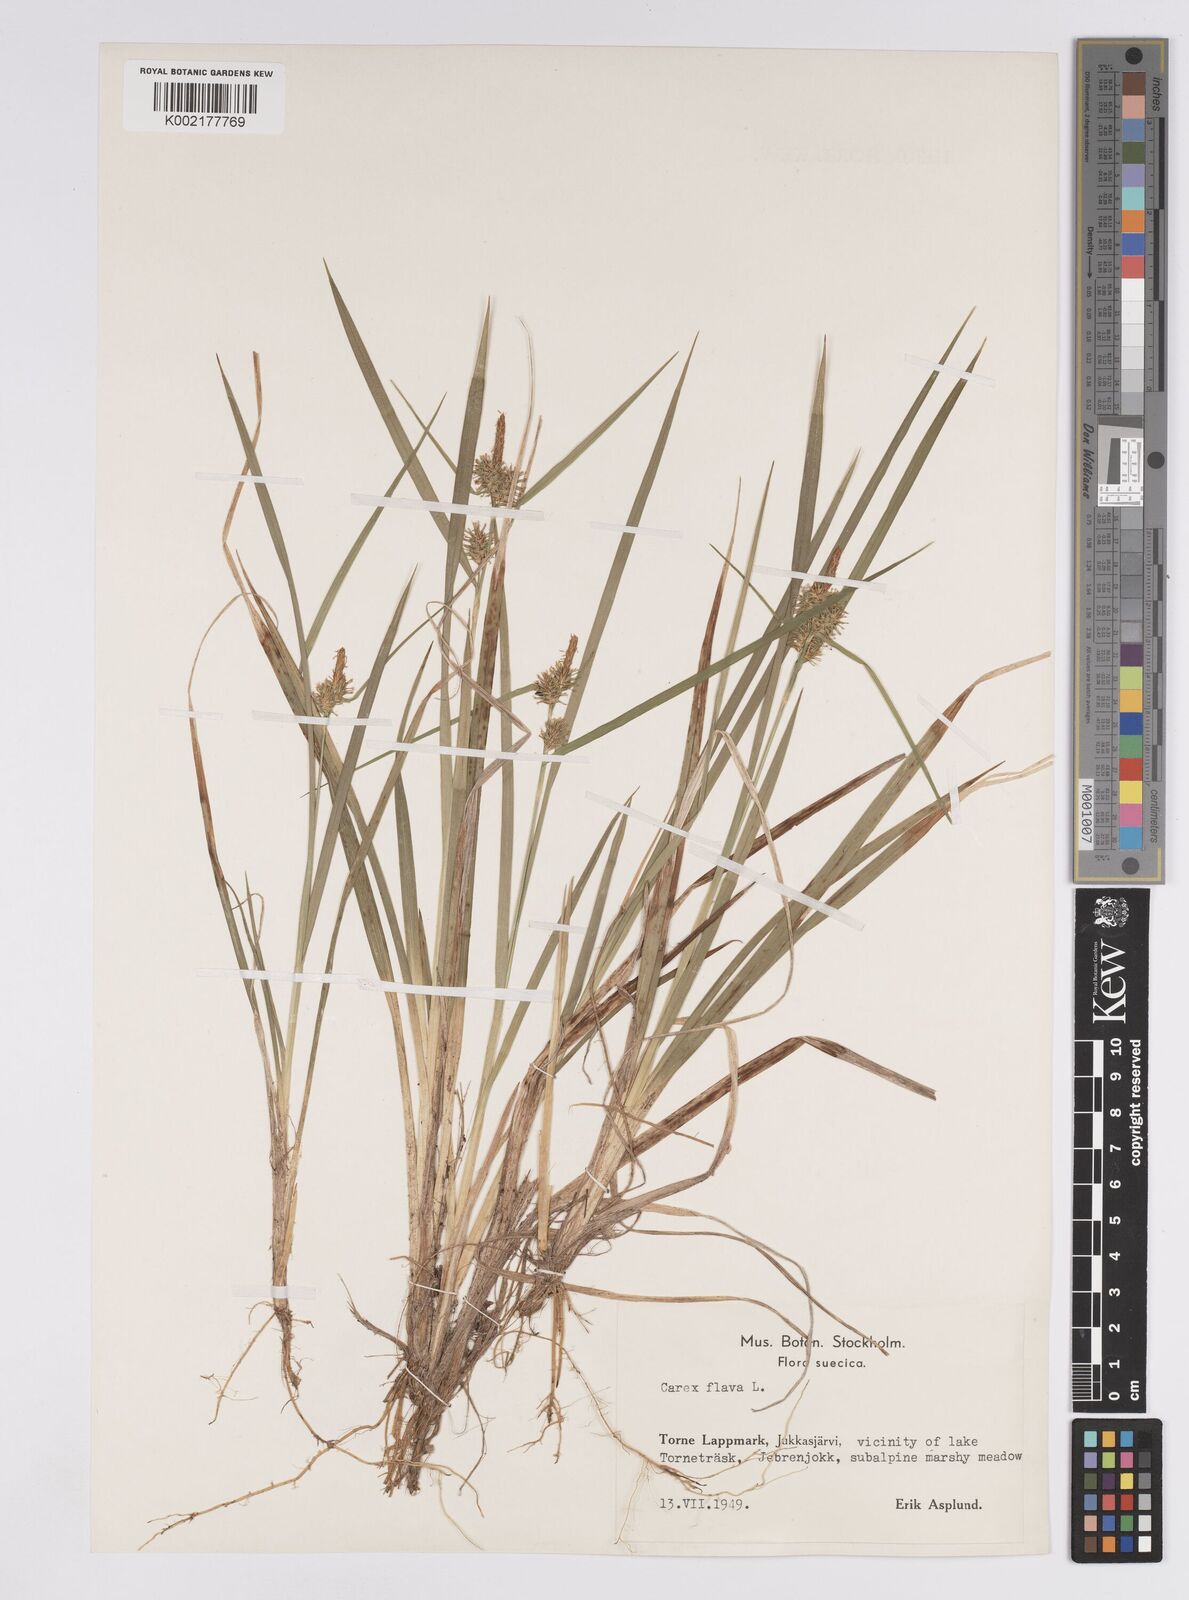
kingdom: Plantae
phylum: Tracheophyta
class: Liliopsida
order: Poales
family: Cyperaceae
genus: Carex
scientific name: Carex flava
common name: Large yellow-sedge
